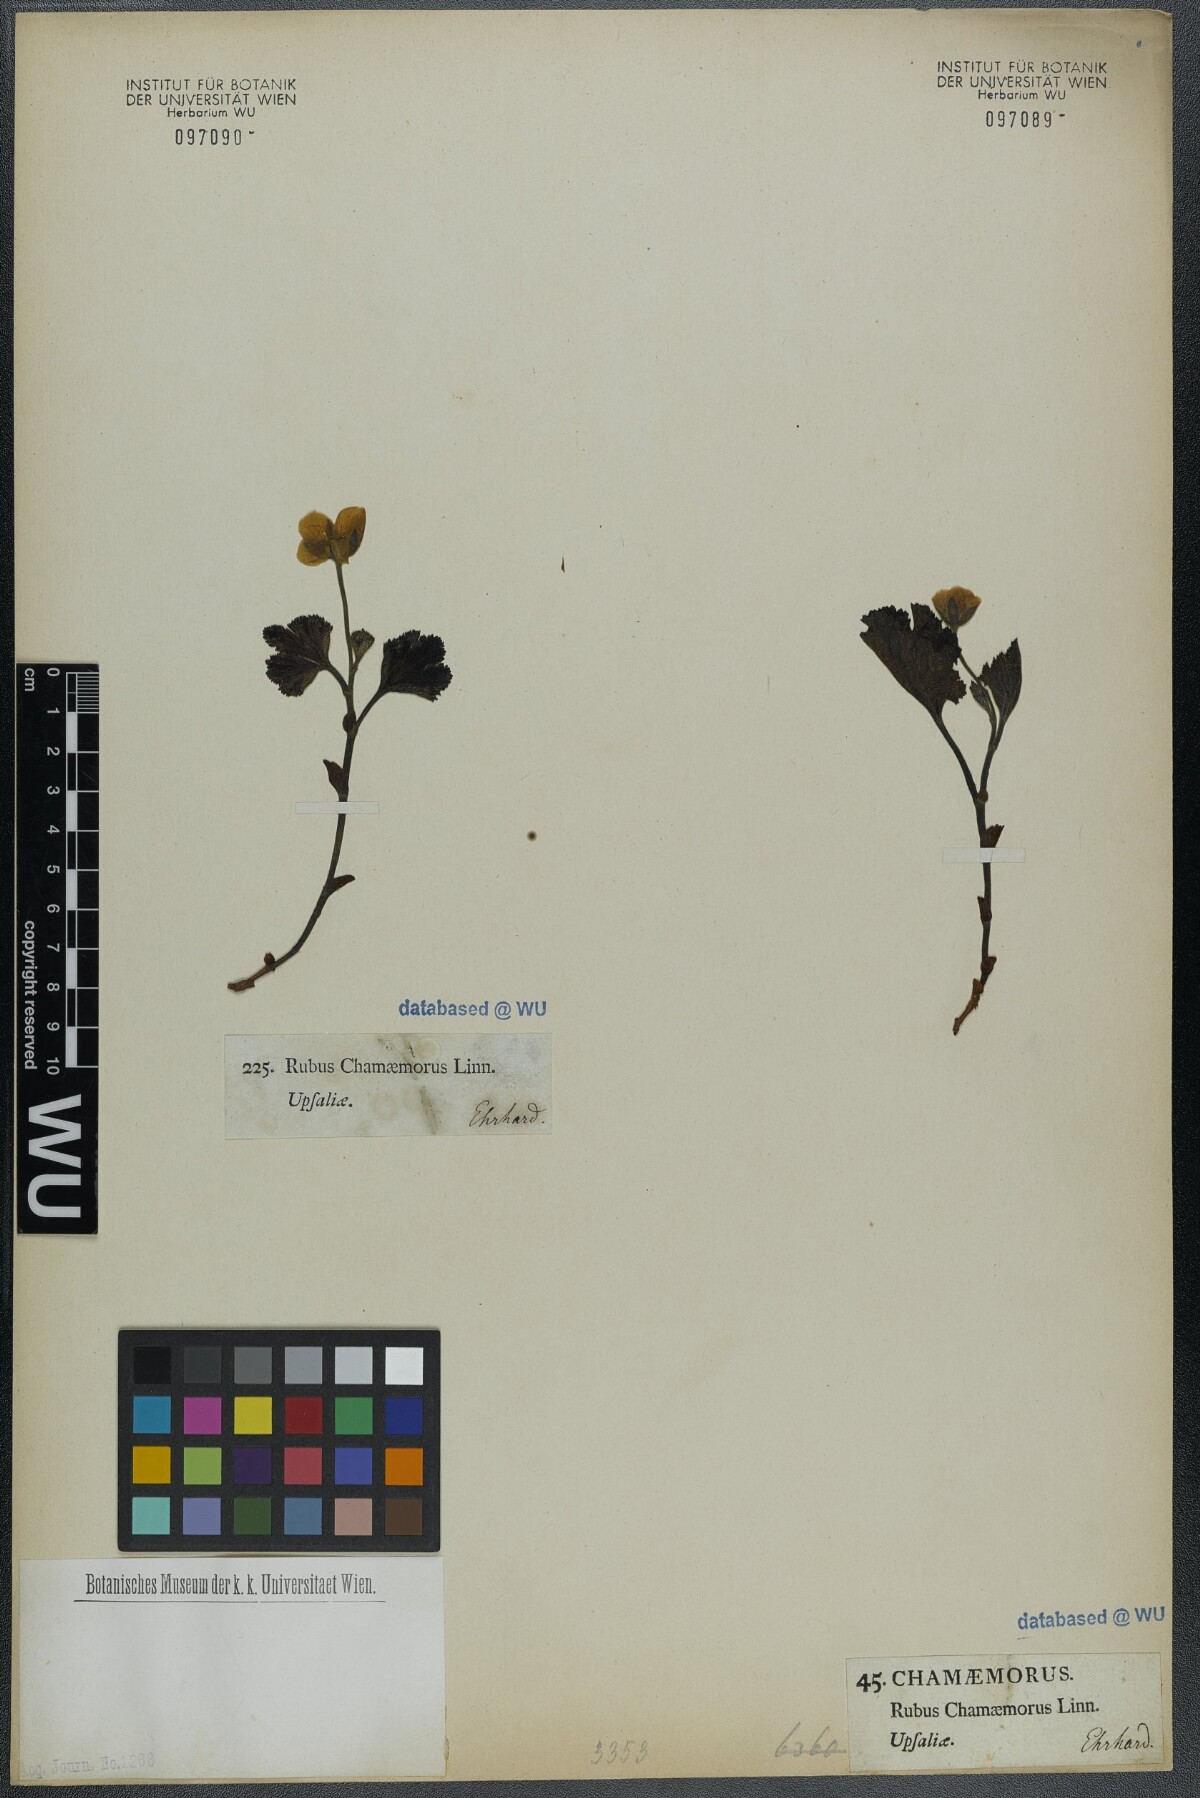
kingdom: Plantae
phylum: Tracheophyta
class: Magnoliopsida
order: Rosales
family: Rosaceae
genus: Rubus
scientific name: Rubus chamaemorus
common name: Cloudberry
